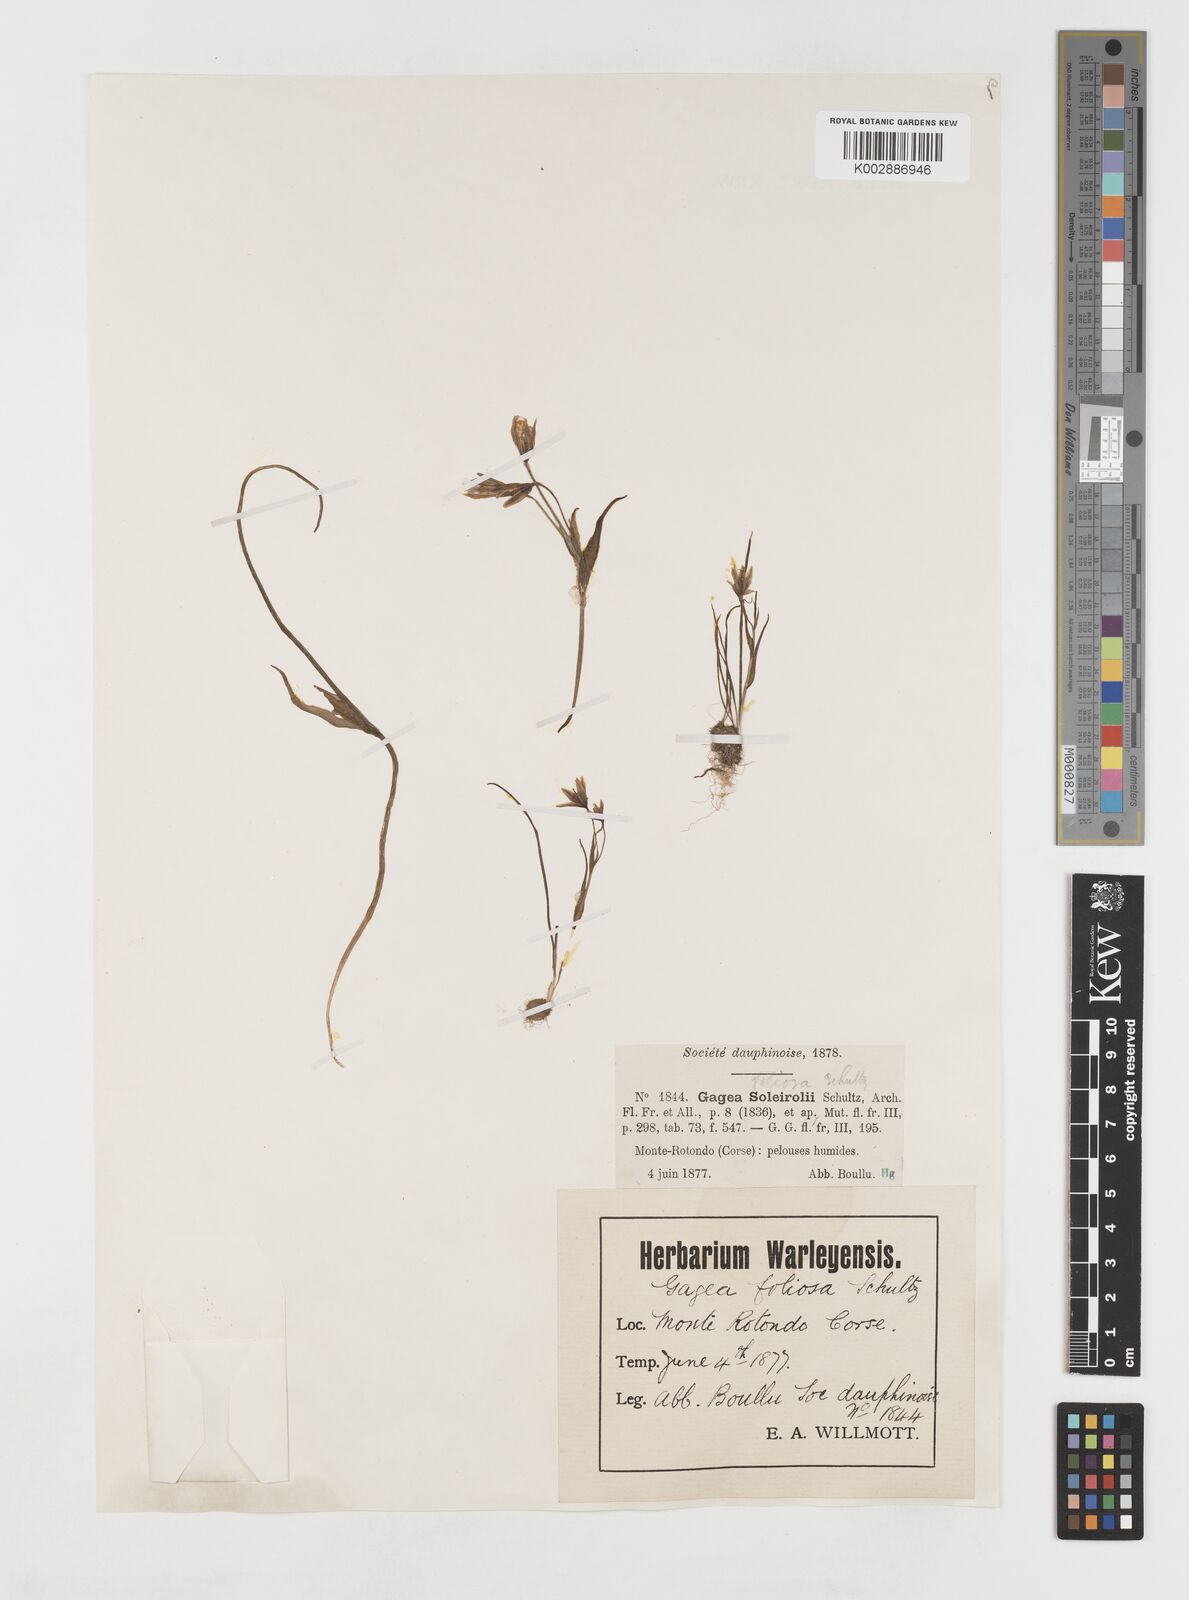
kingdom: Plantae
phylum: Tracheophyta
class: Liliopsida
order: Liliales
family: Liliaceae
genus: Gagea
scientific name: Gagea foliosa
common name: Leafy gagea
